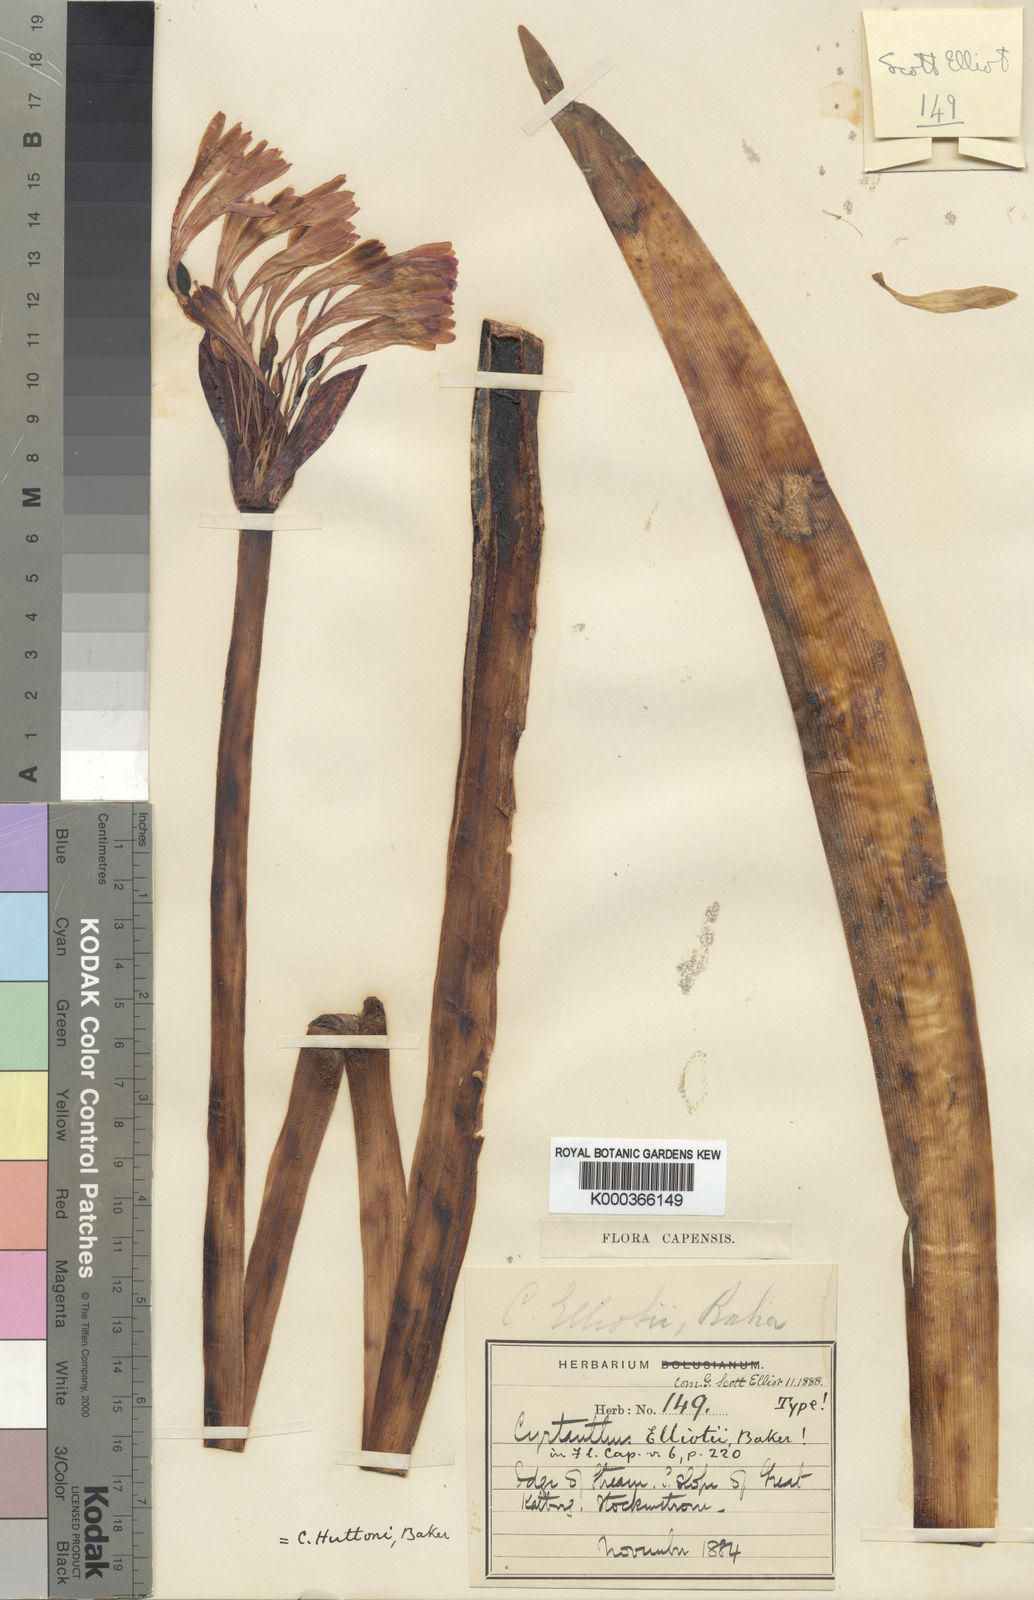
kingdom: Plantae
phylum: Tracheophyta
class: Liliopsida
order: Asparagales
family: Amaryllidaceae
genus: Cyrtanthus
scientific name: Cyrtanthus huttonii
